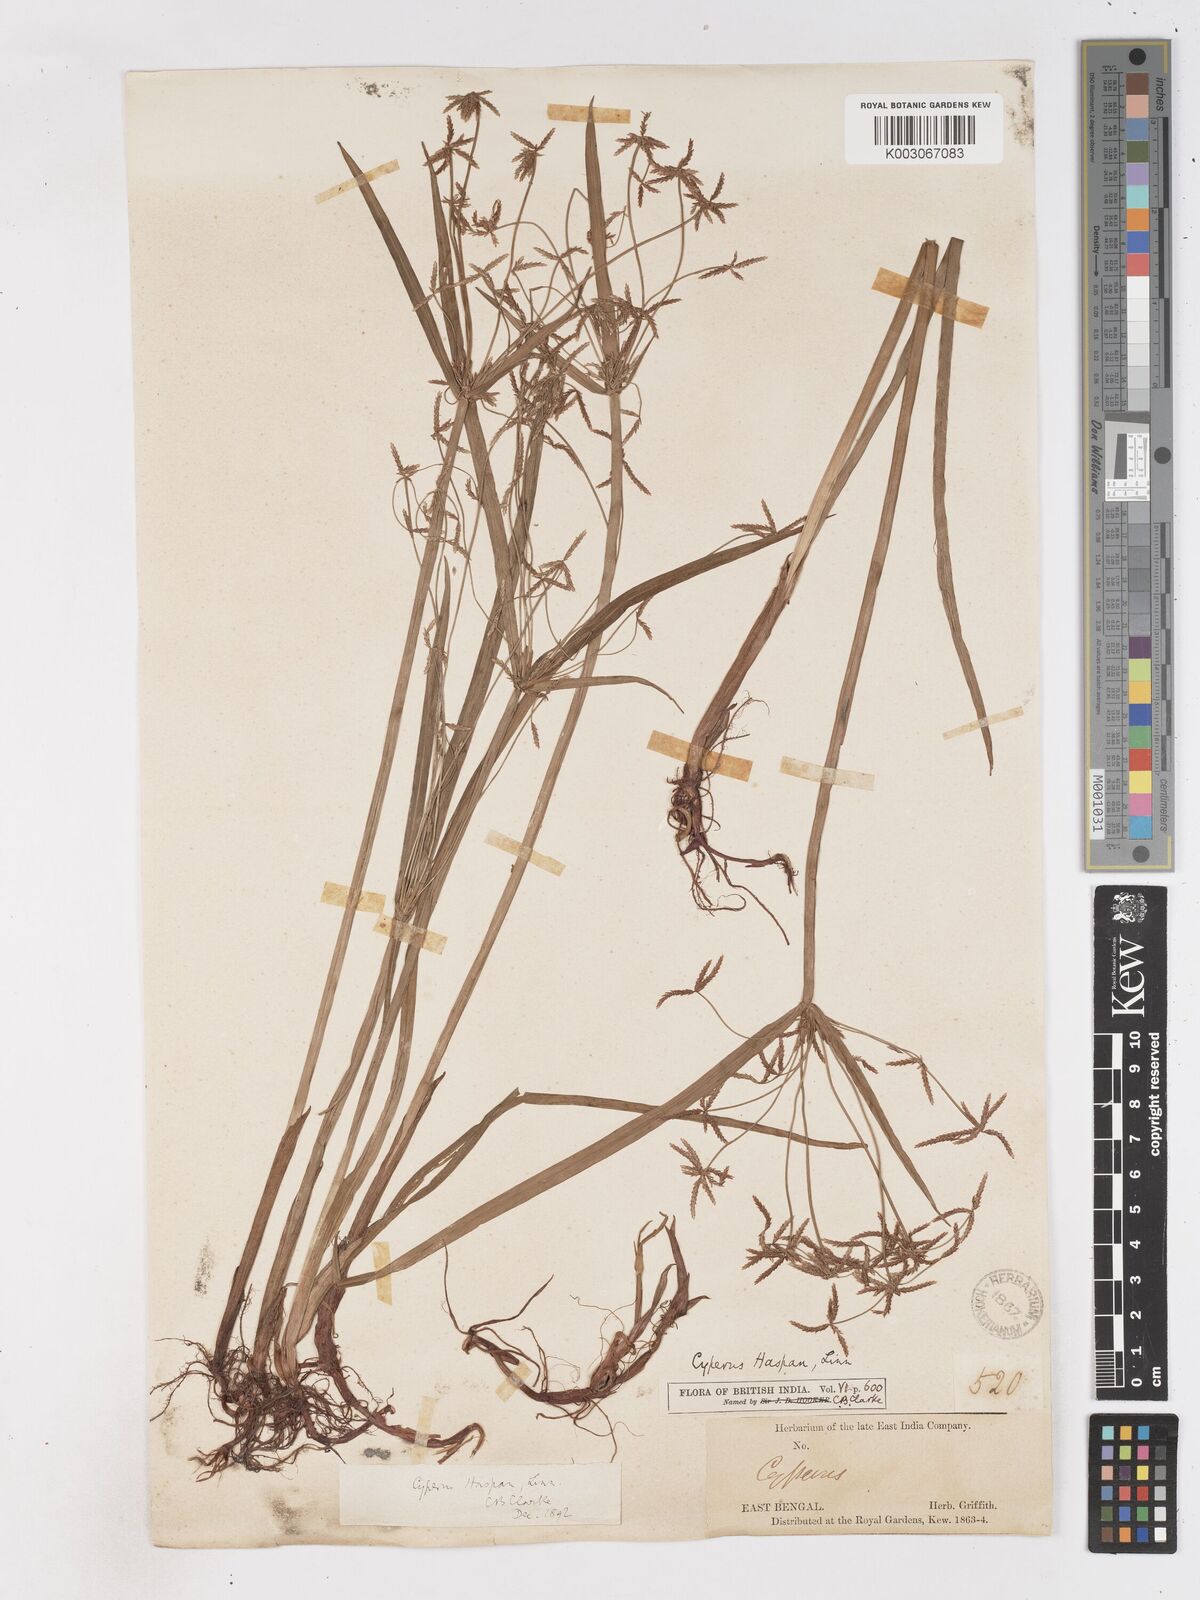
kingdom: Plantae
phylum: Tracheophyta
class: Liliopsida
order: Poales
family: Cyperaceae
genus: Cyperus
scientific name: Cyperus haspan
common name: Haspan flatsedge
